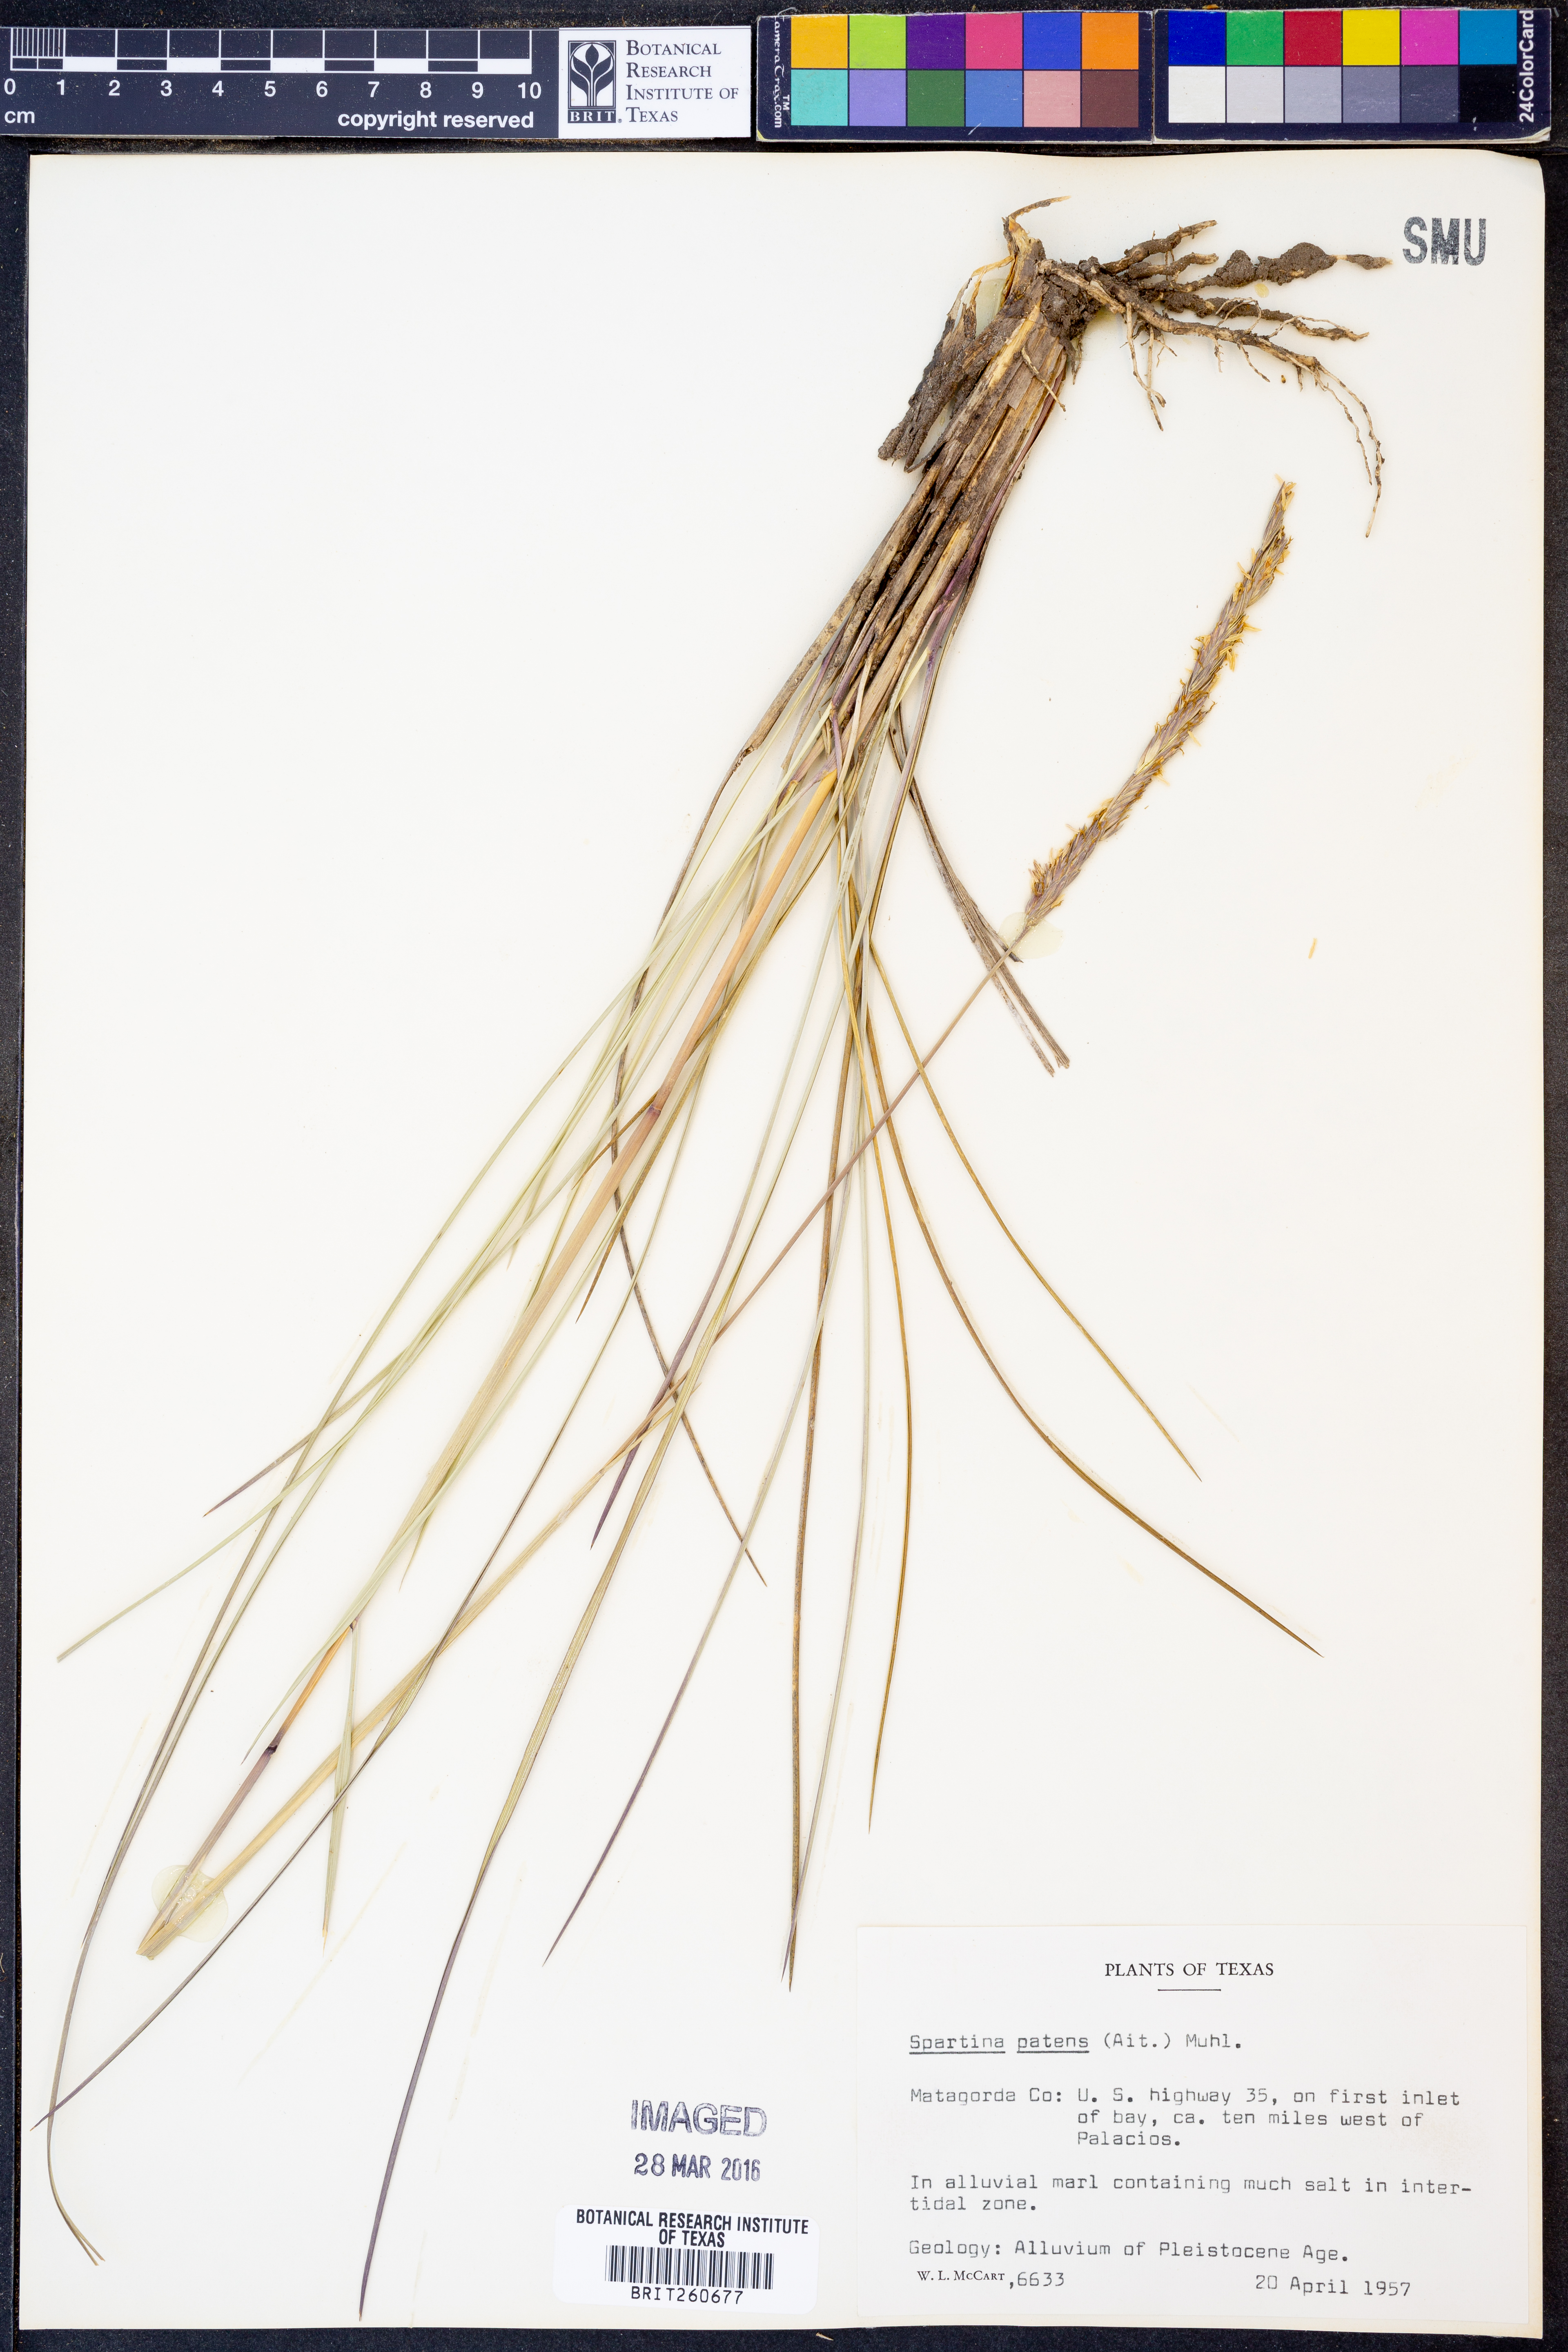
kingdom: Plantae
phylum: Tracheophyta
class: Liliopsida
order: Poales
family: Poaceae
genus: Sporobolus
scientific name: Sporobolus pumilus
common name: Highwater grass
